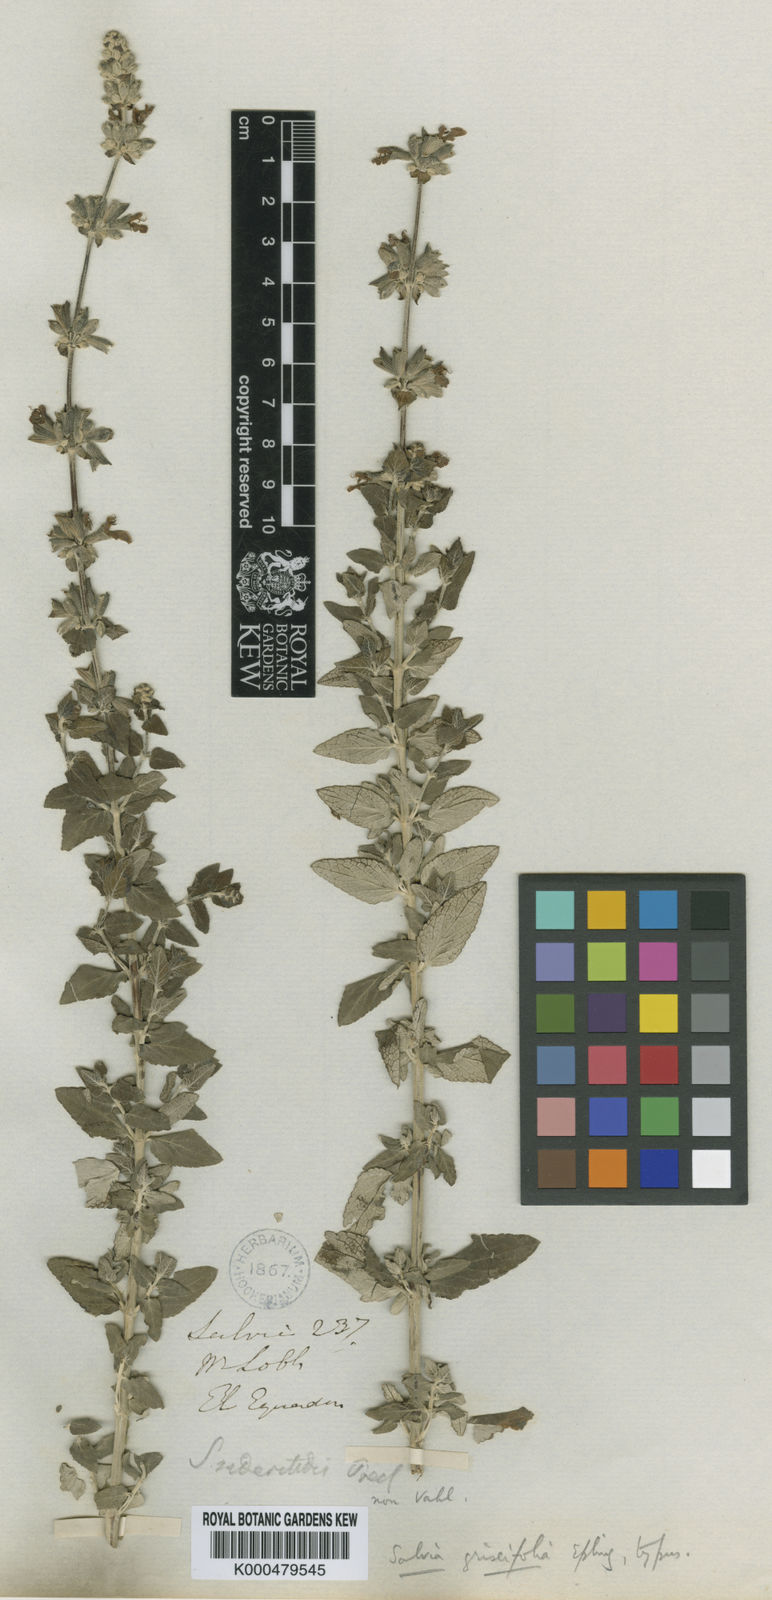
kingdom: Plantae
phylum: Tracheophyta
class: Magnoliopsida
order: Lamiales
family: Lamiaceae
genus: Salvia
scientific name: Salvia griseifolia
